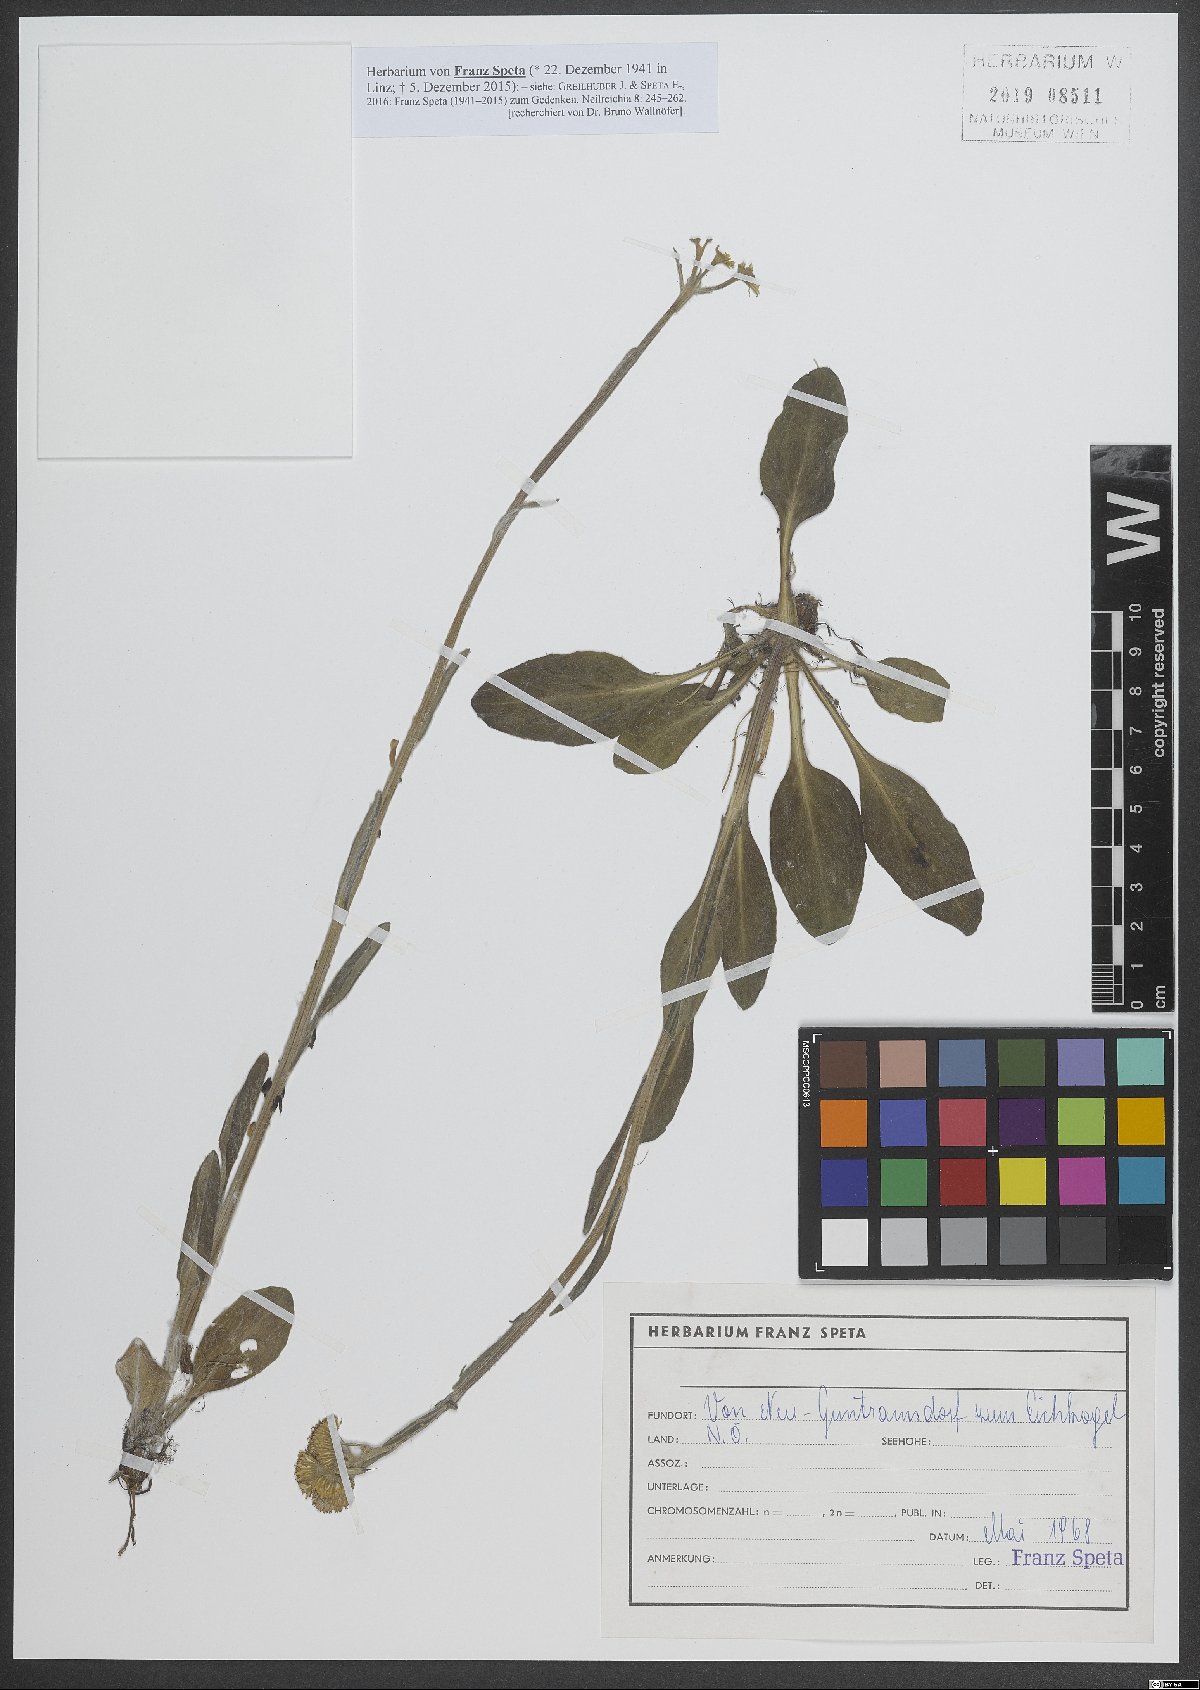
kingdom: Plantae
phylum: Tracheophyta
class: Magnoliopsida
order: Asterales
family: Asteraceae
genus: Tephroseris
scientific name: Tephroseris integrifolia
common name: Field fleawort
